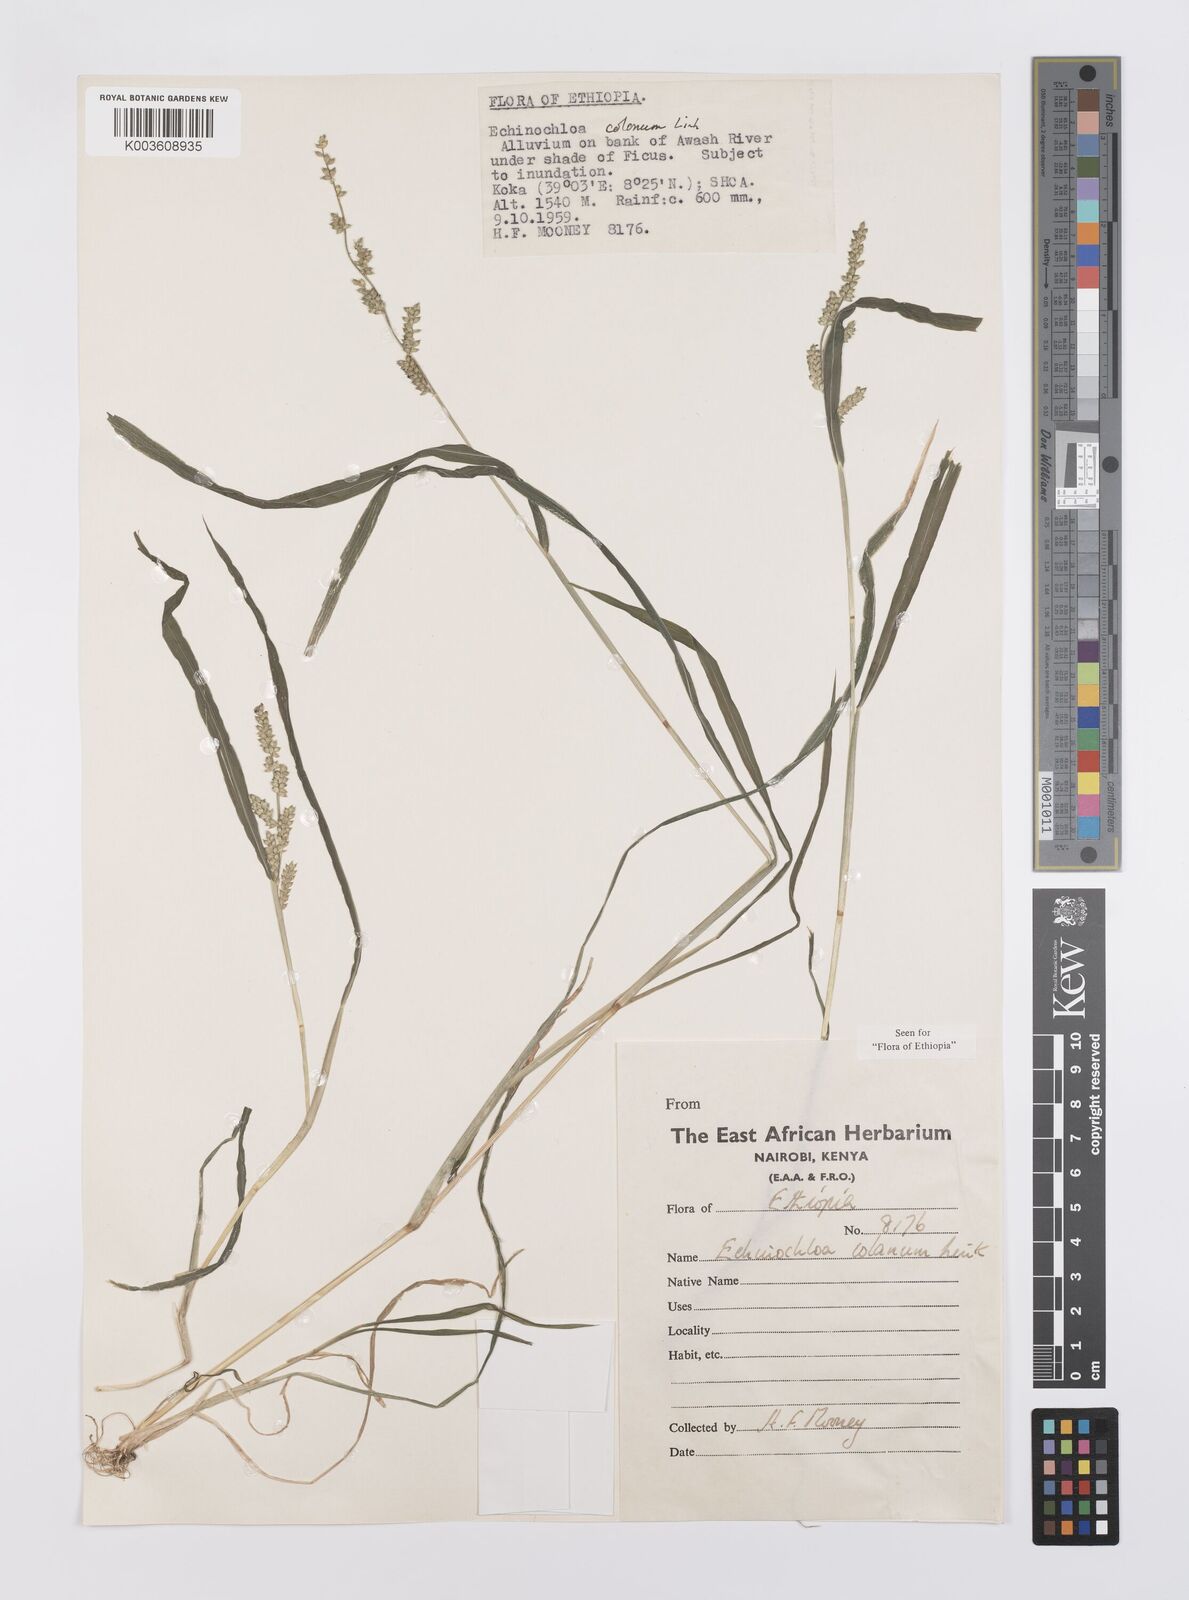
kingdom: Plantae
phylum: Tracheophyta
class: Liliopsida
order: Poales
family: Poaceae
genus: Echinochloa
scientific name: Echinochloa colonum
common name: Jungle rice
